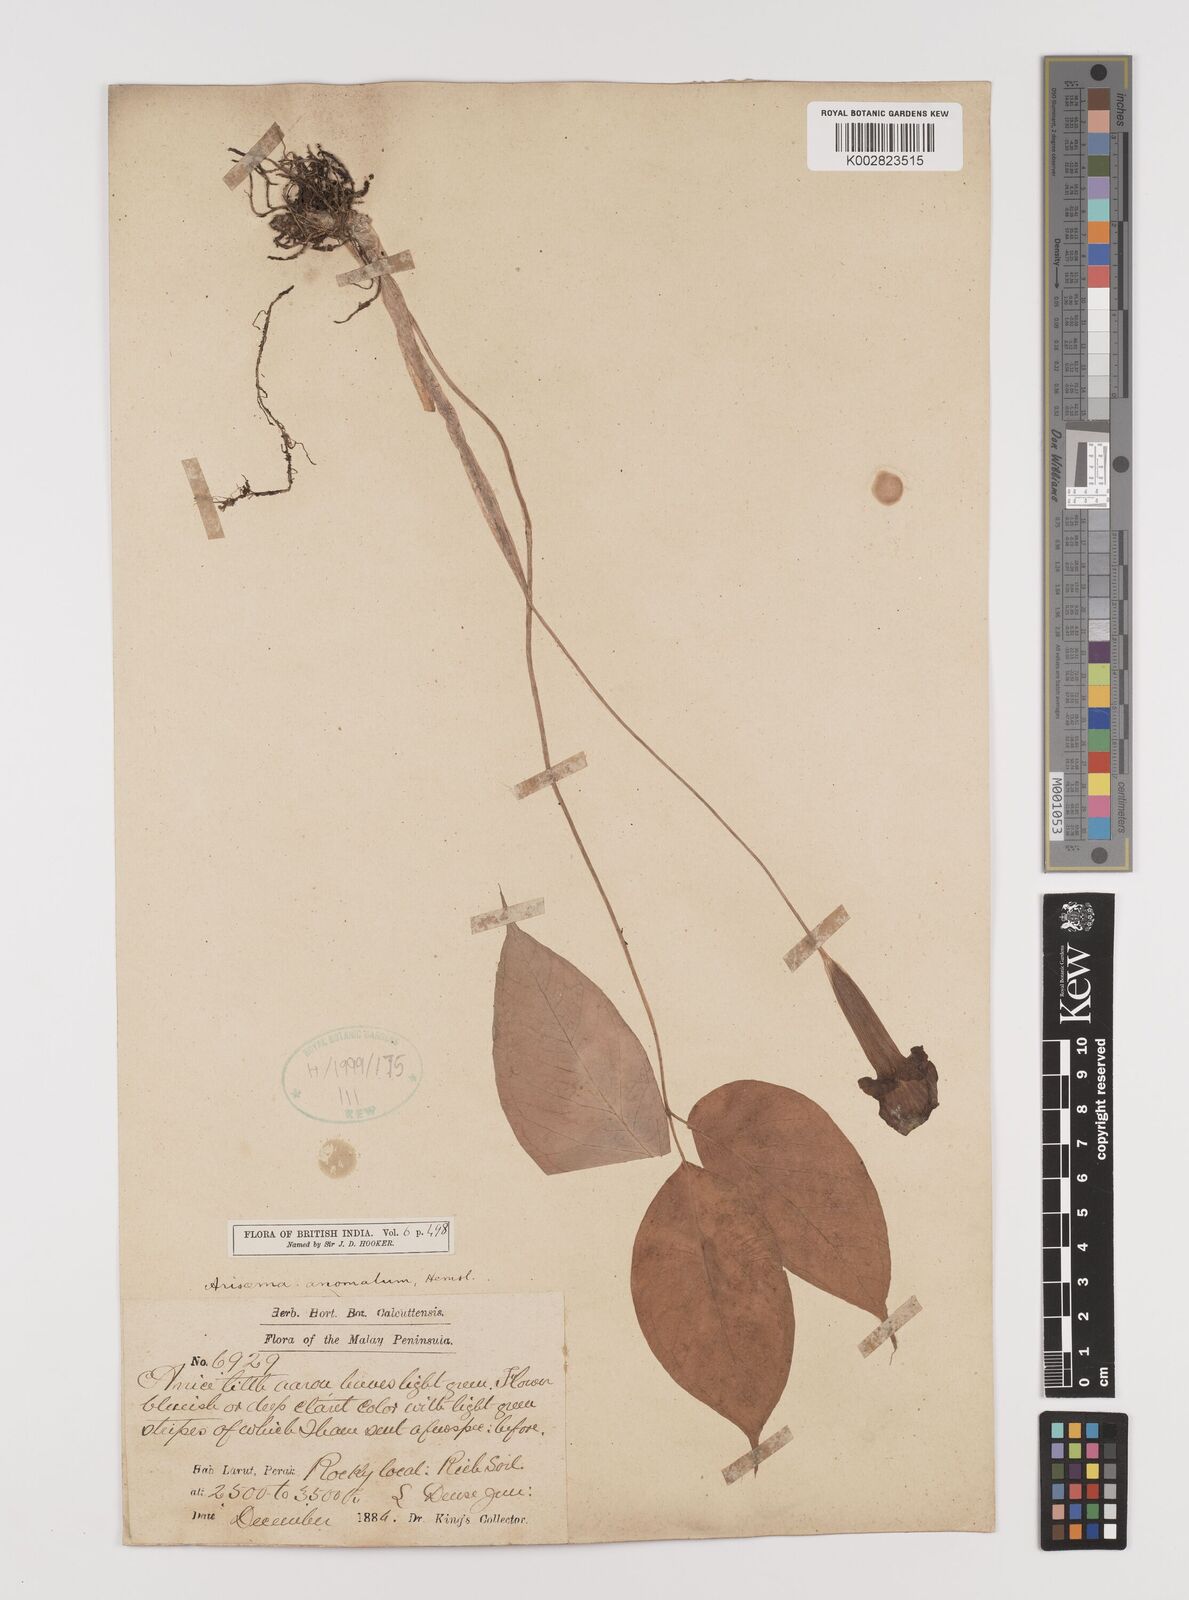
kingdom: Plantae
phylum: Tracheophyta
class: Liliopsida
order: Alismatales
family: Araceae
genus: Arisaema
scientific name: Arisaema anomalum
